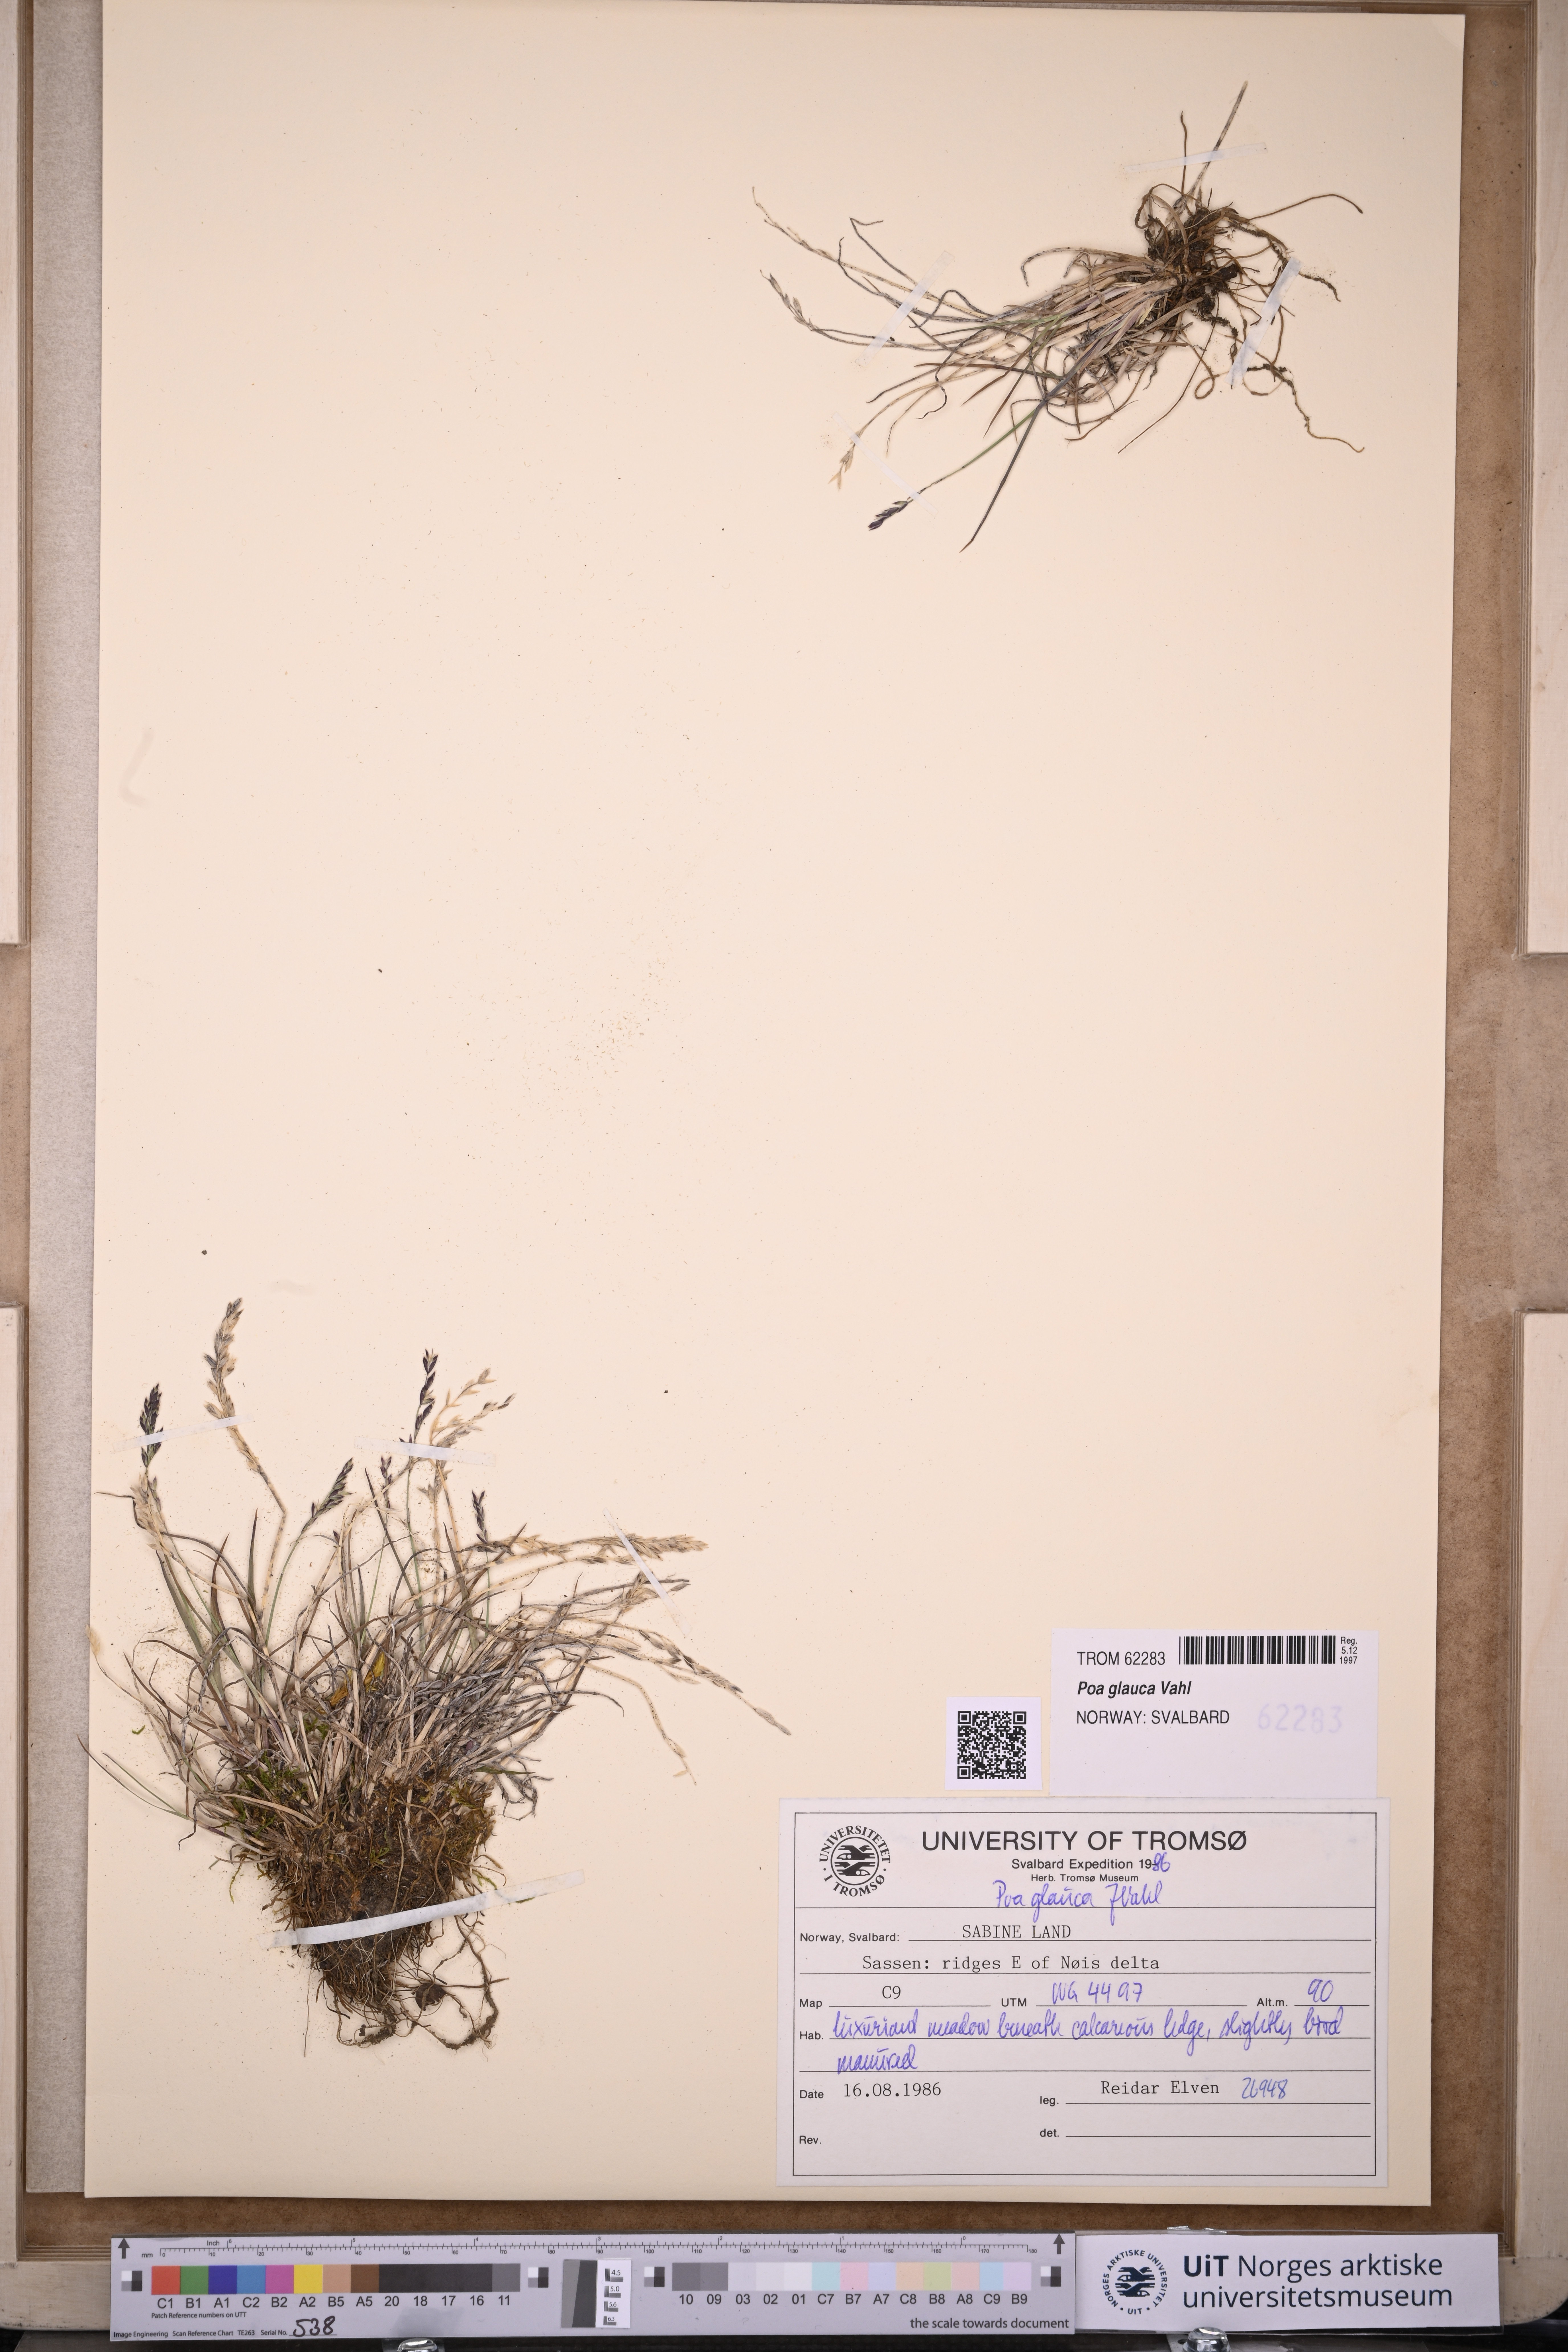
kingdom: Plantae
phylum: Tracheophyta
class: Liliopsida
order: Poales
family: Poaceae
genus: Poa
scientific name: Poa glauca
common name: Glaucous bluegrass
